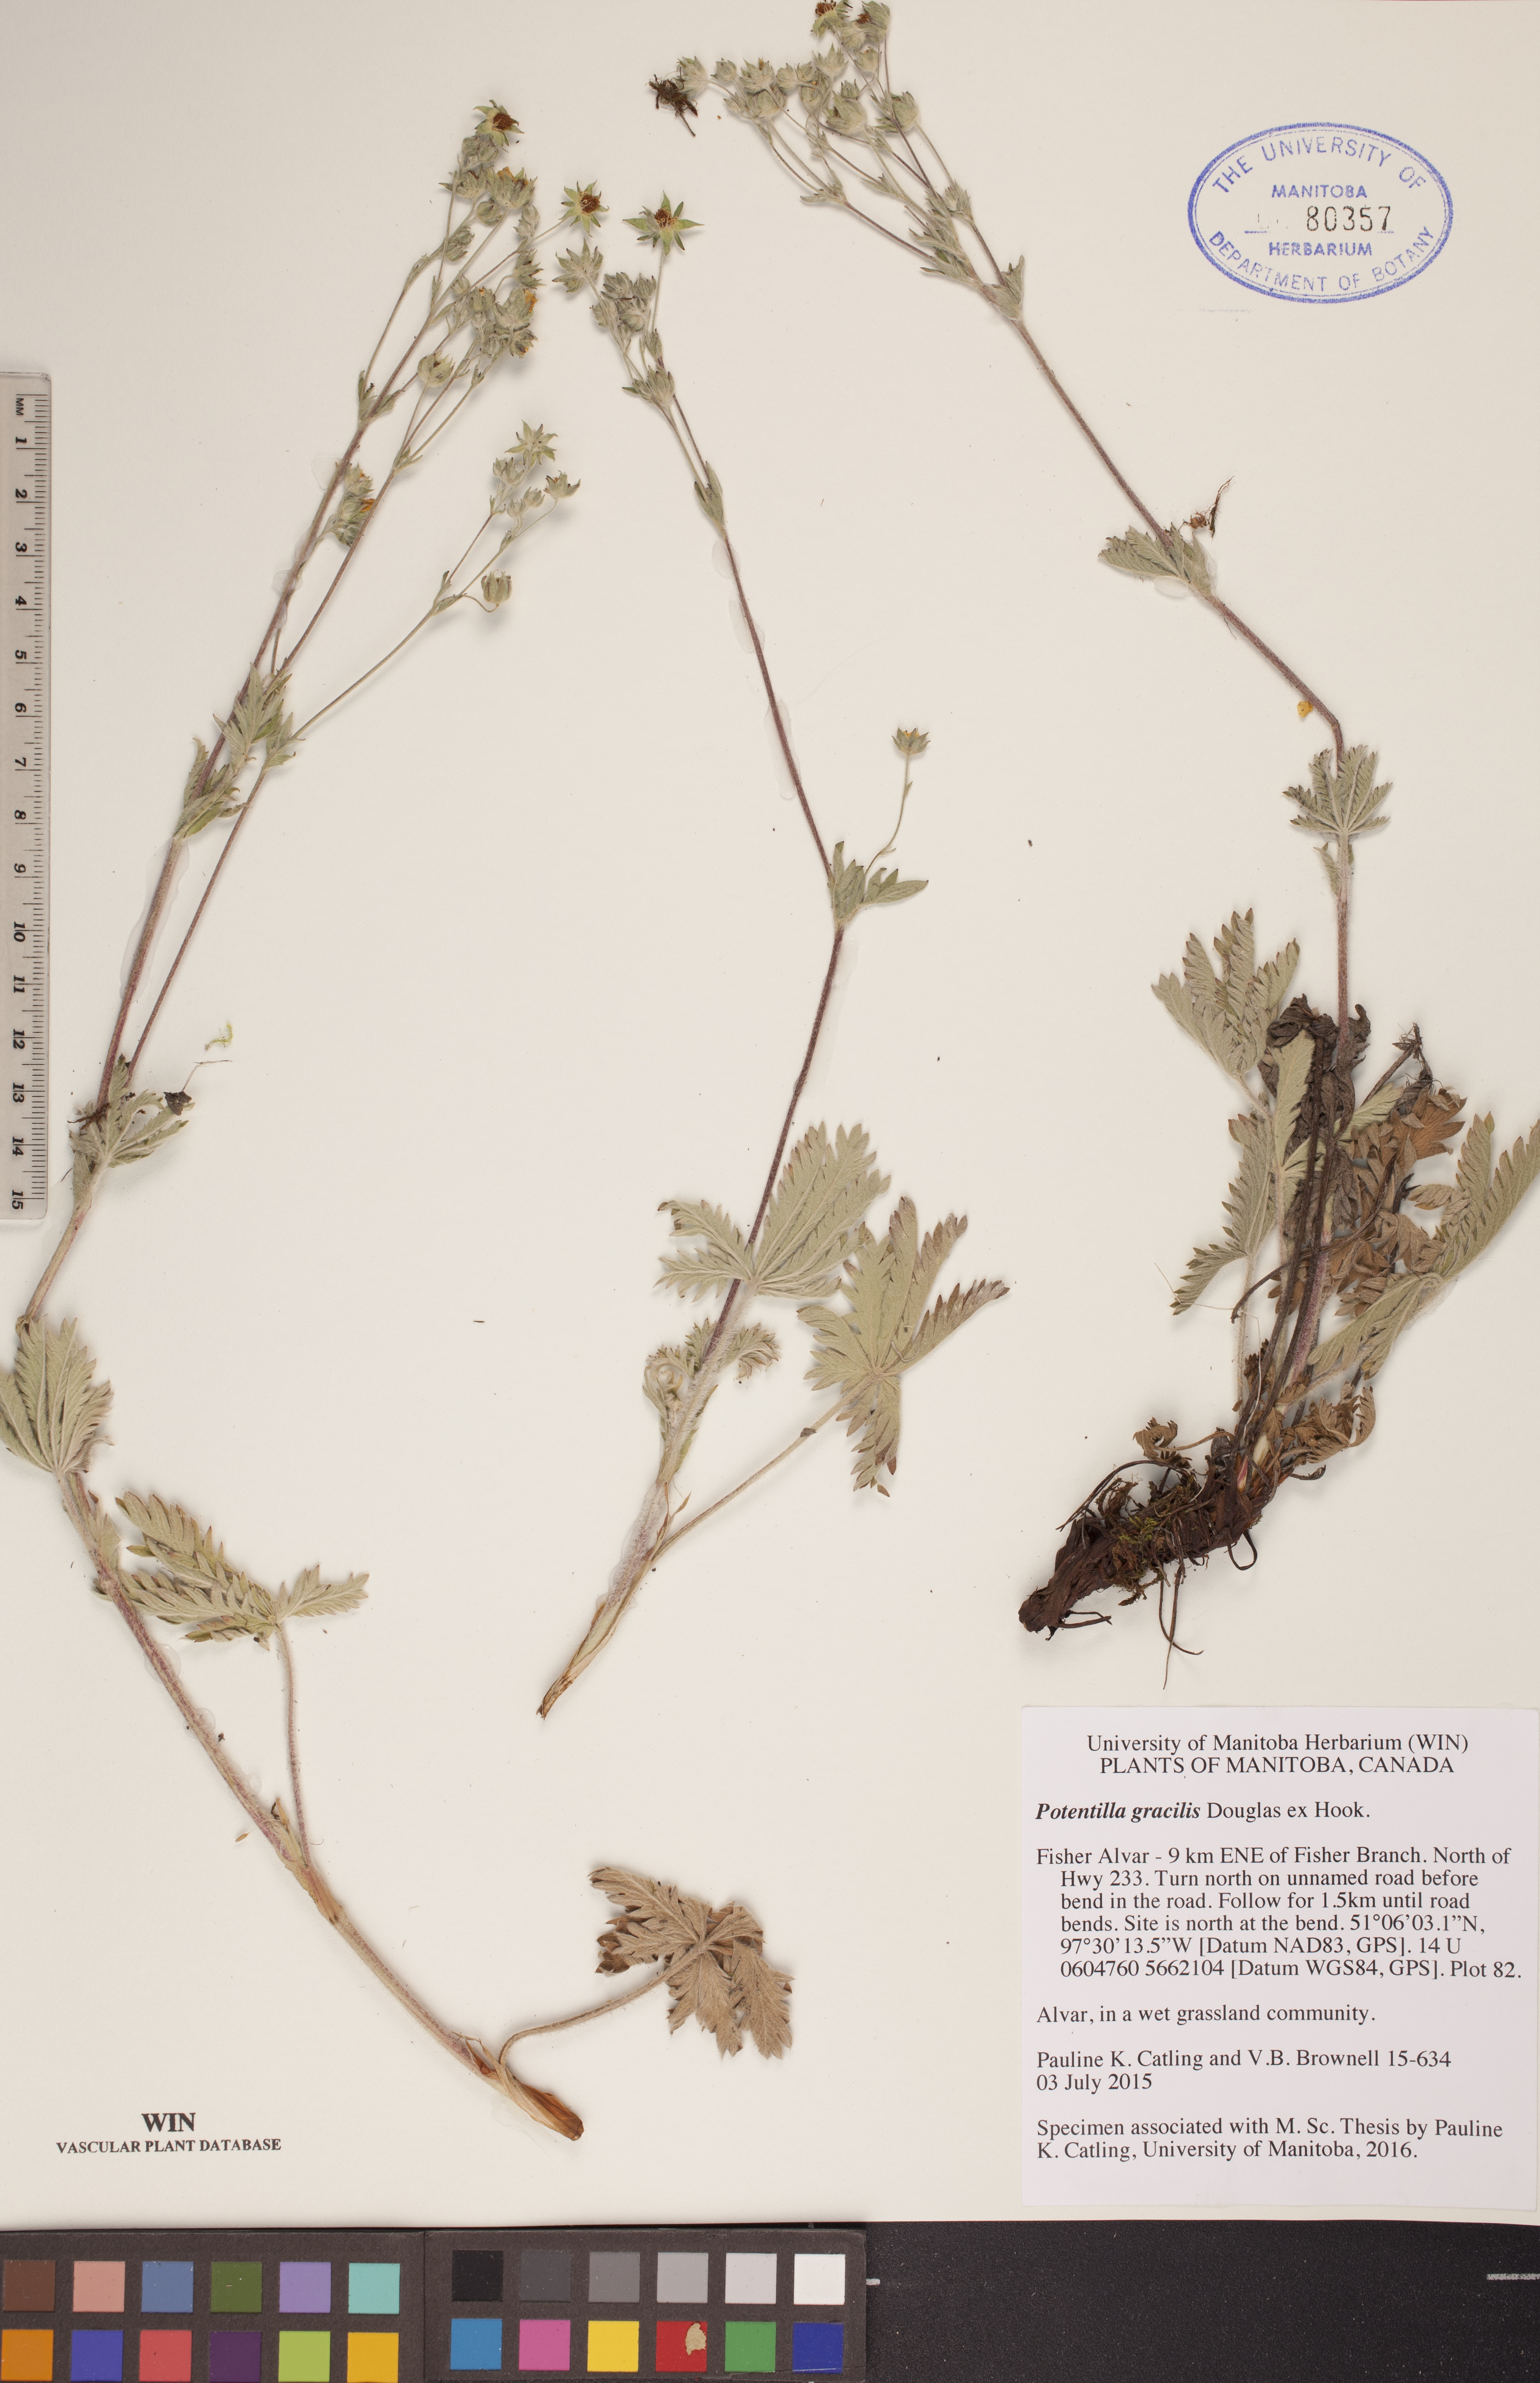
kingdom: Plantae
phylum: Tracheophyta
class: Magnoliopsida
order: Rosales
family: Rosaceae
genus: Potentilla
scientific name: Potentilla gracilis
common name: Graceful cinquefoil
